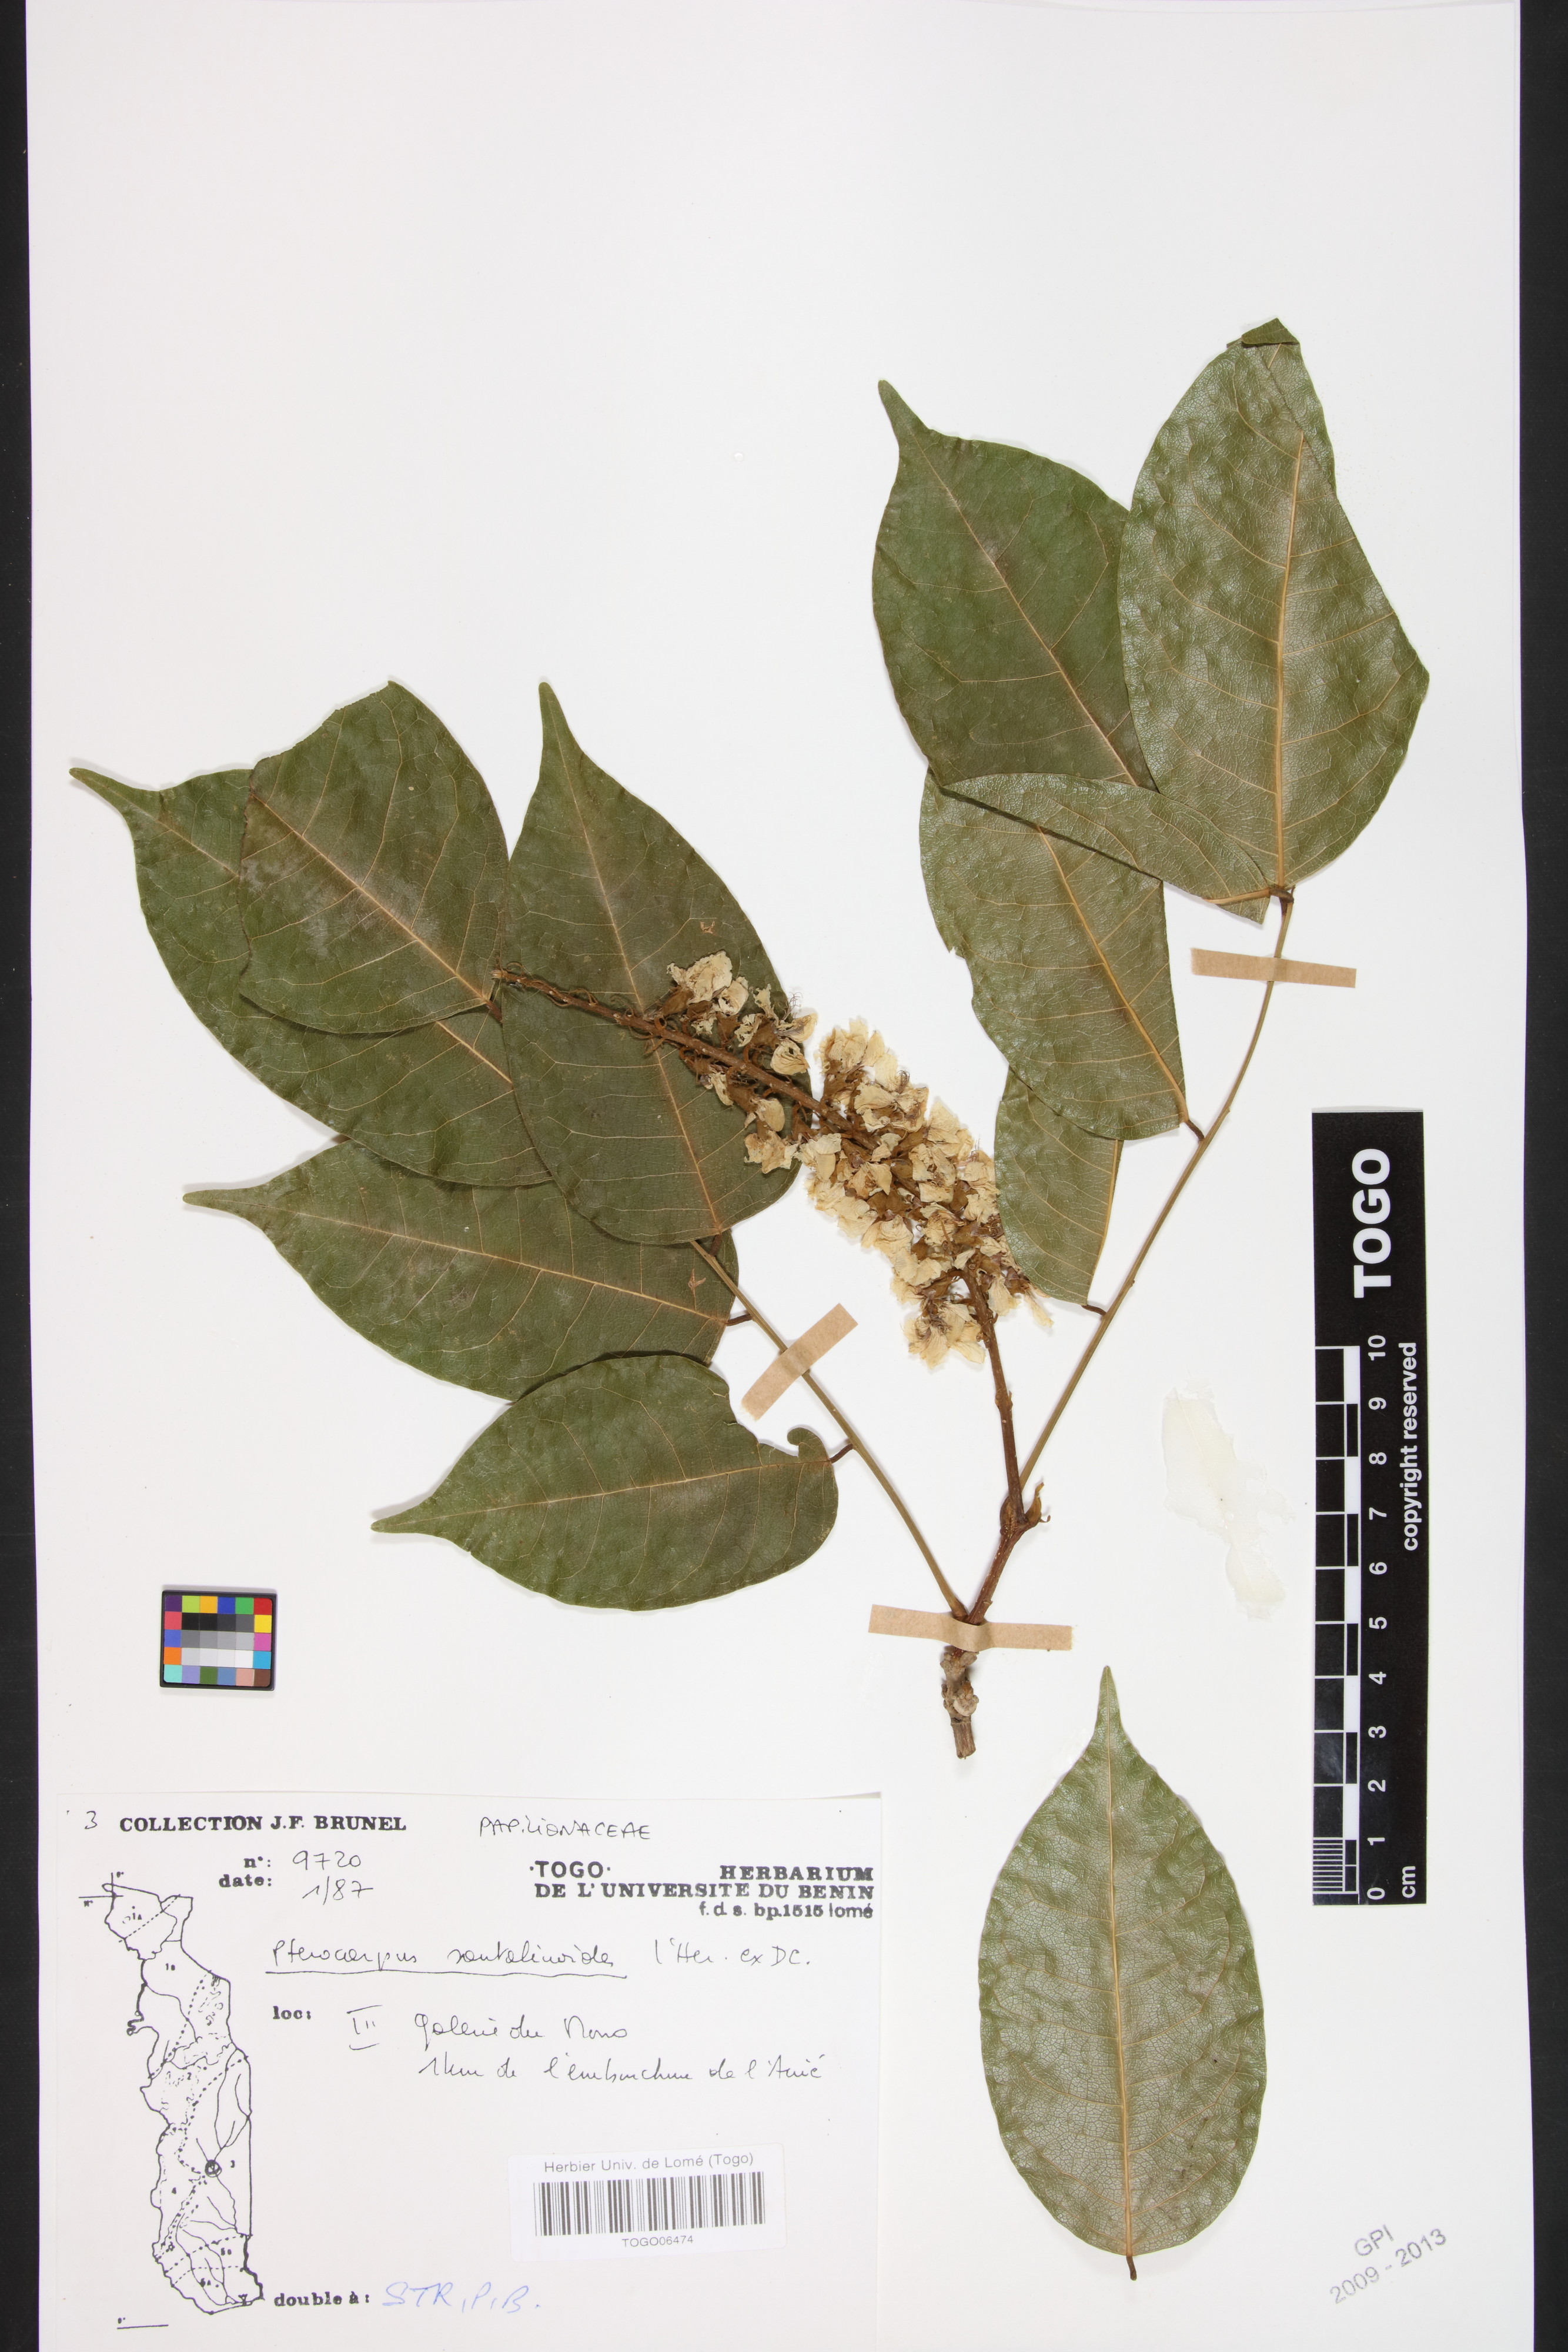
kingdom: Plantae
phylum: Tracheophyta
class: Magnoliopsida
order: Fabales
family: Fabaceae
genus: Pterocarpus
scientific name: Pterocarpus santalinoides
